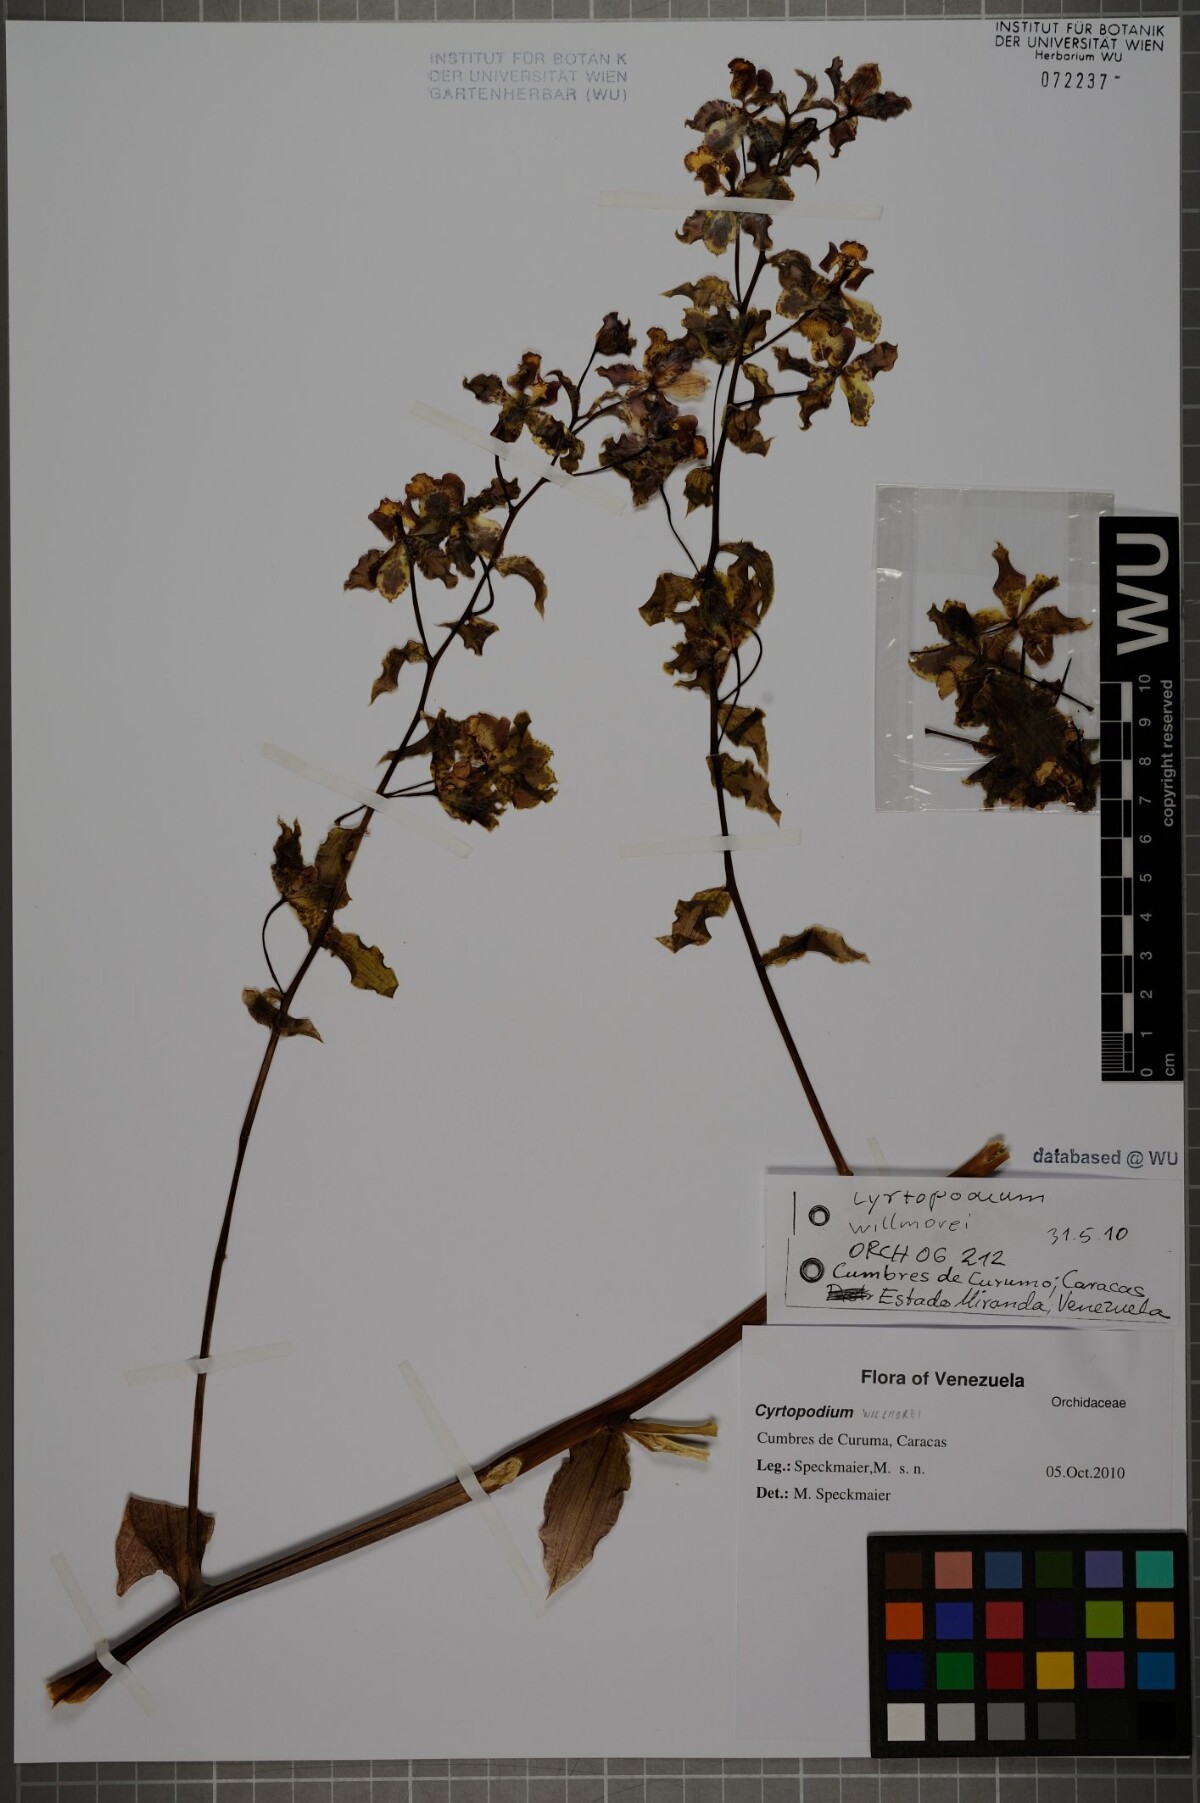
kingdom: Plantae
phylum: Tracheophyta
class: Liliopsida
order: Asparagales
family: Orchidaceae
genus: Cyrtopodium
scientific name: Cyrtopodium willmorei
